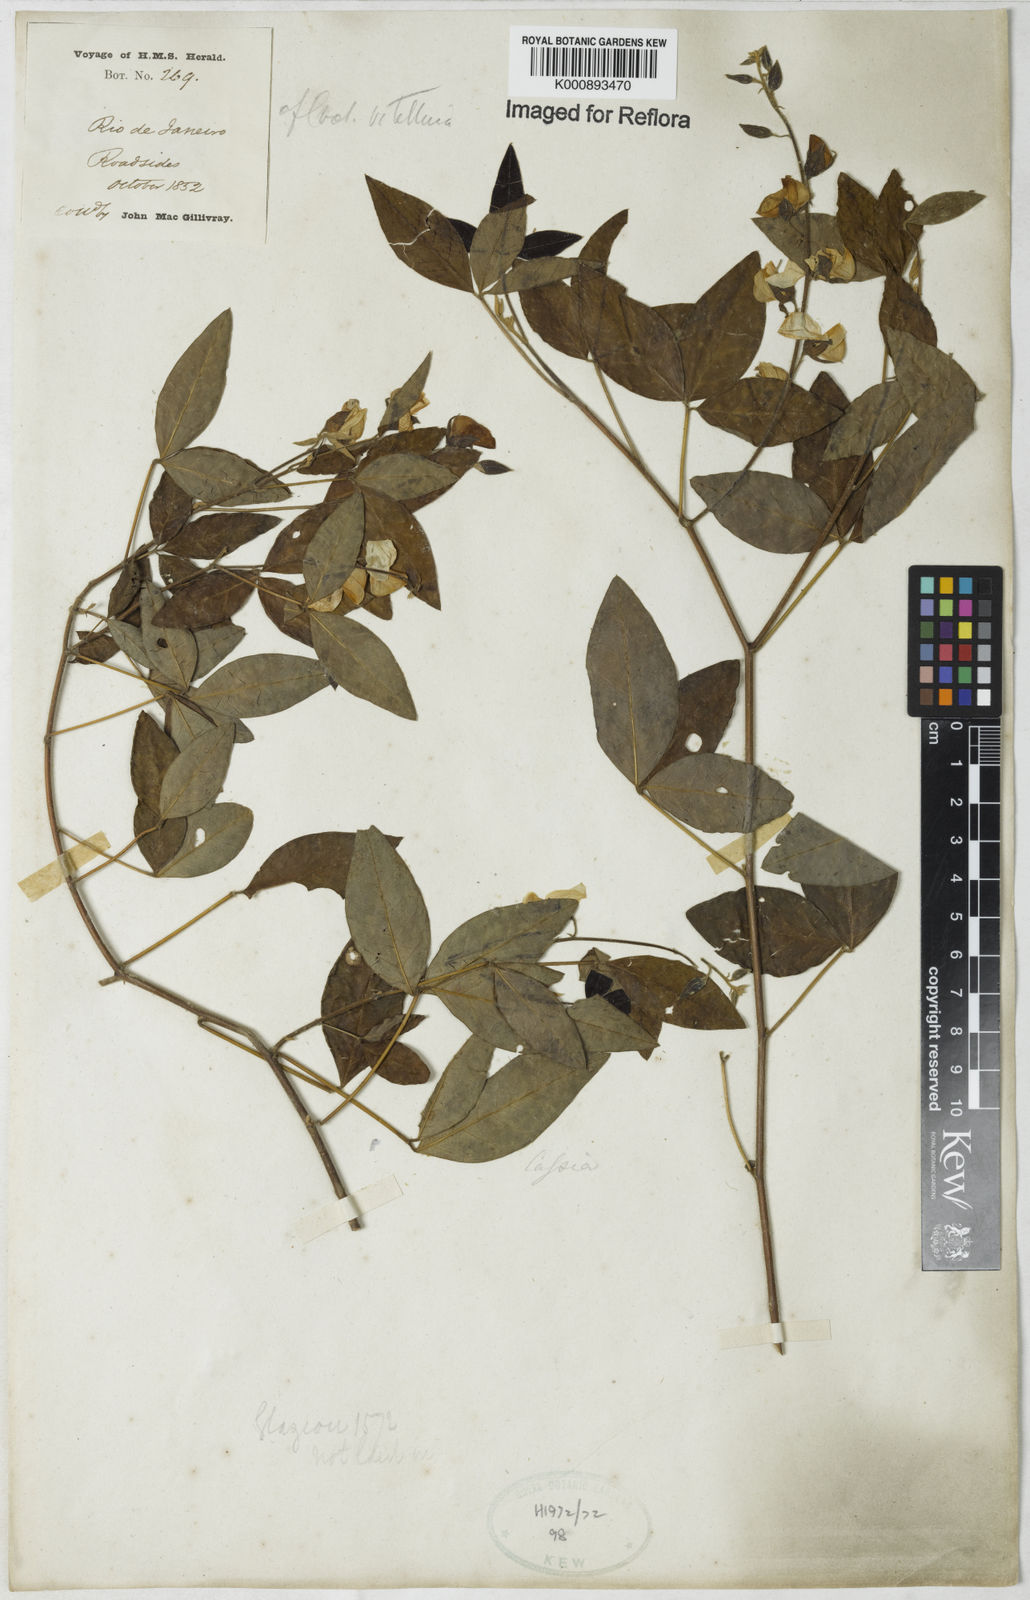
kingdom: Plantae
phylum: Tracheophyta
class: Magnoliopsida
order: Fabales
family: Fabaceae
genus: Crotalaria
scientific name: Crotalaria vitellina
